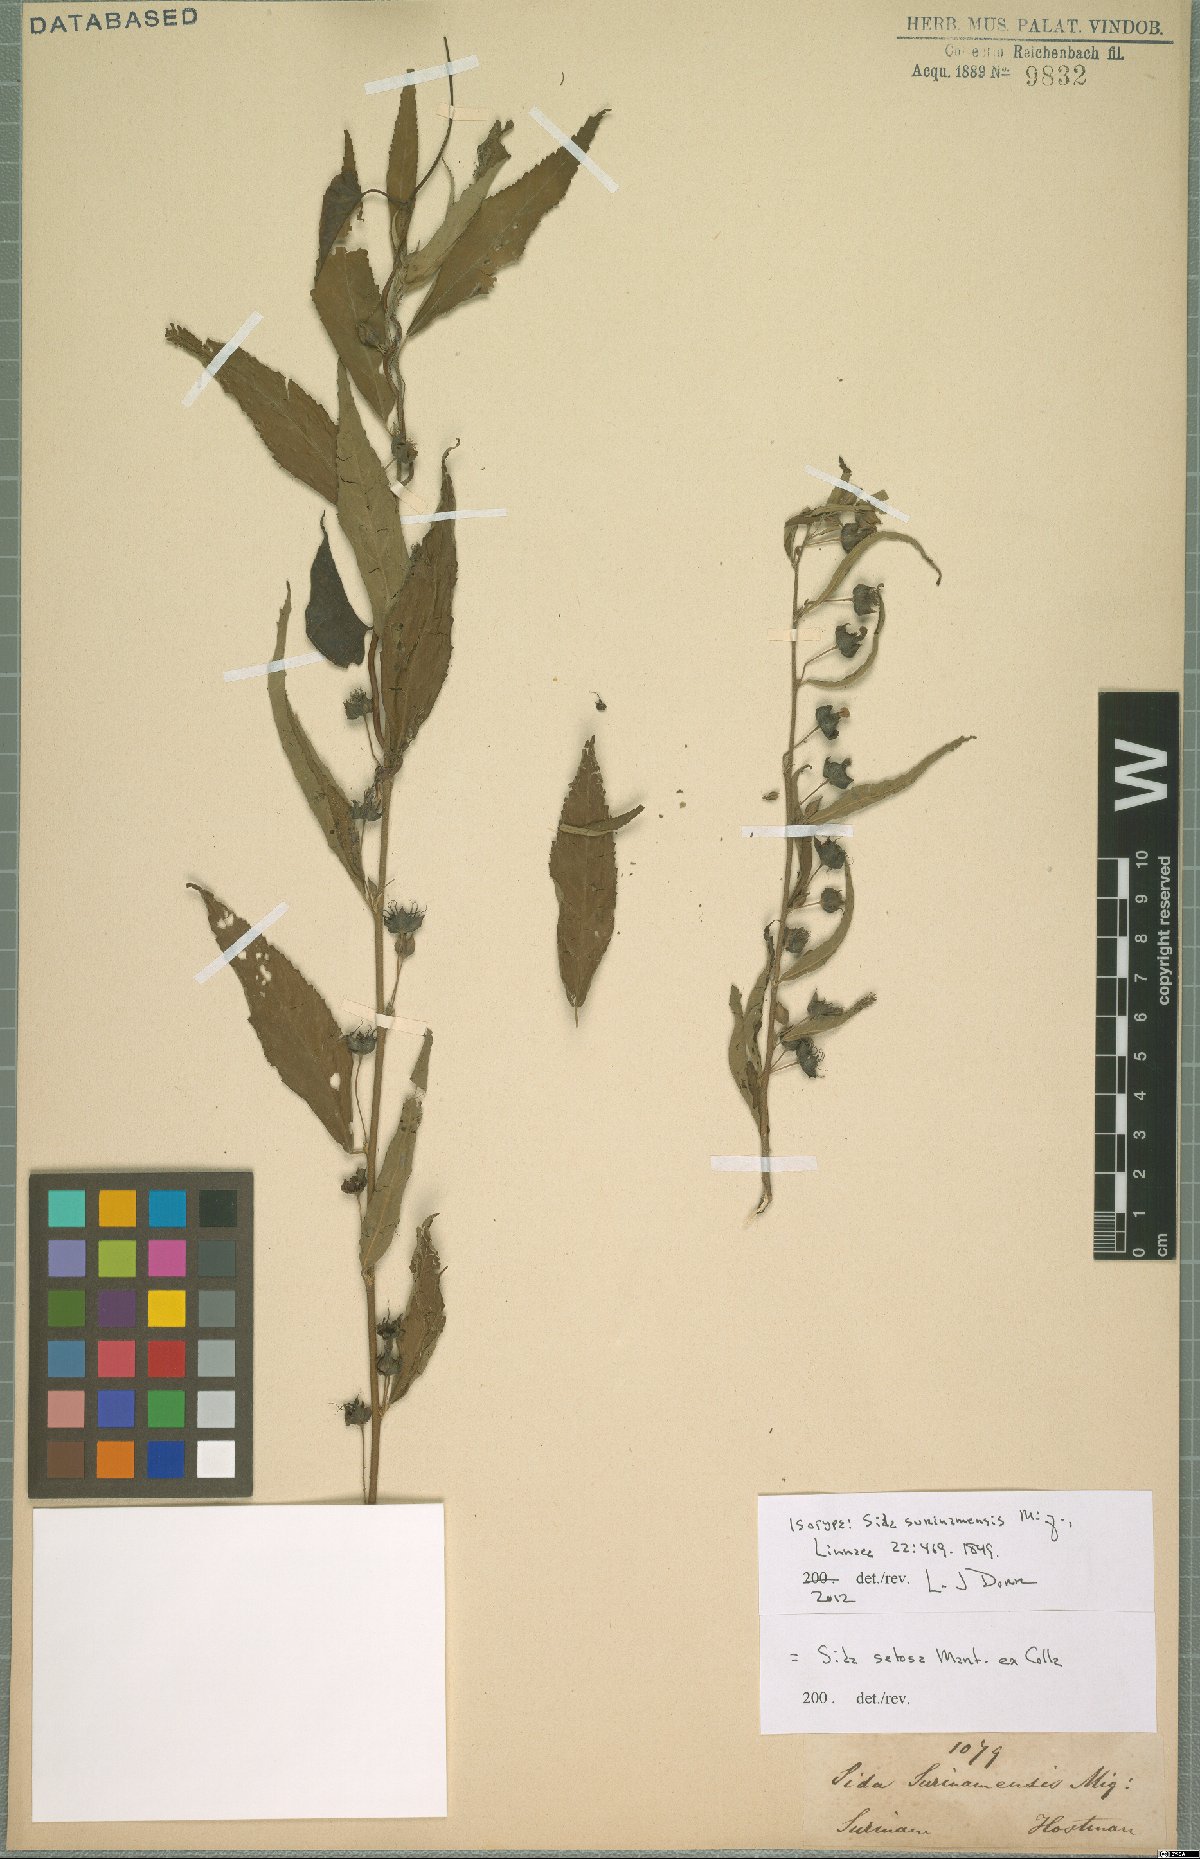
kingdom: Plantae
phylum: Tracheophyta
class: Magnoliopsida
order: Malvales
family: Malvaceae
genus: Sida
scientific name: Sida setosa
